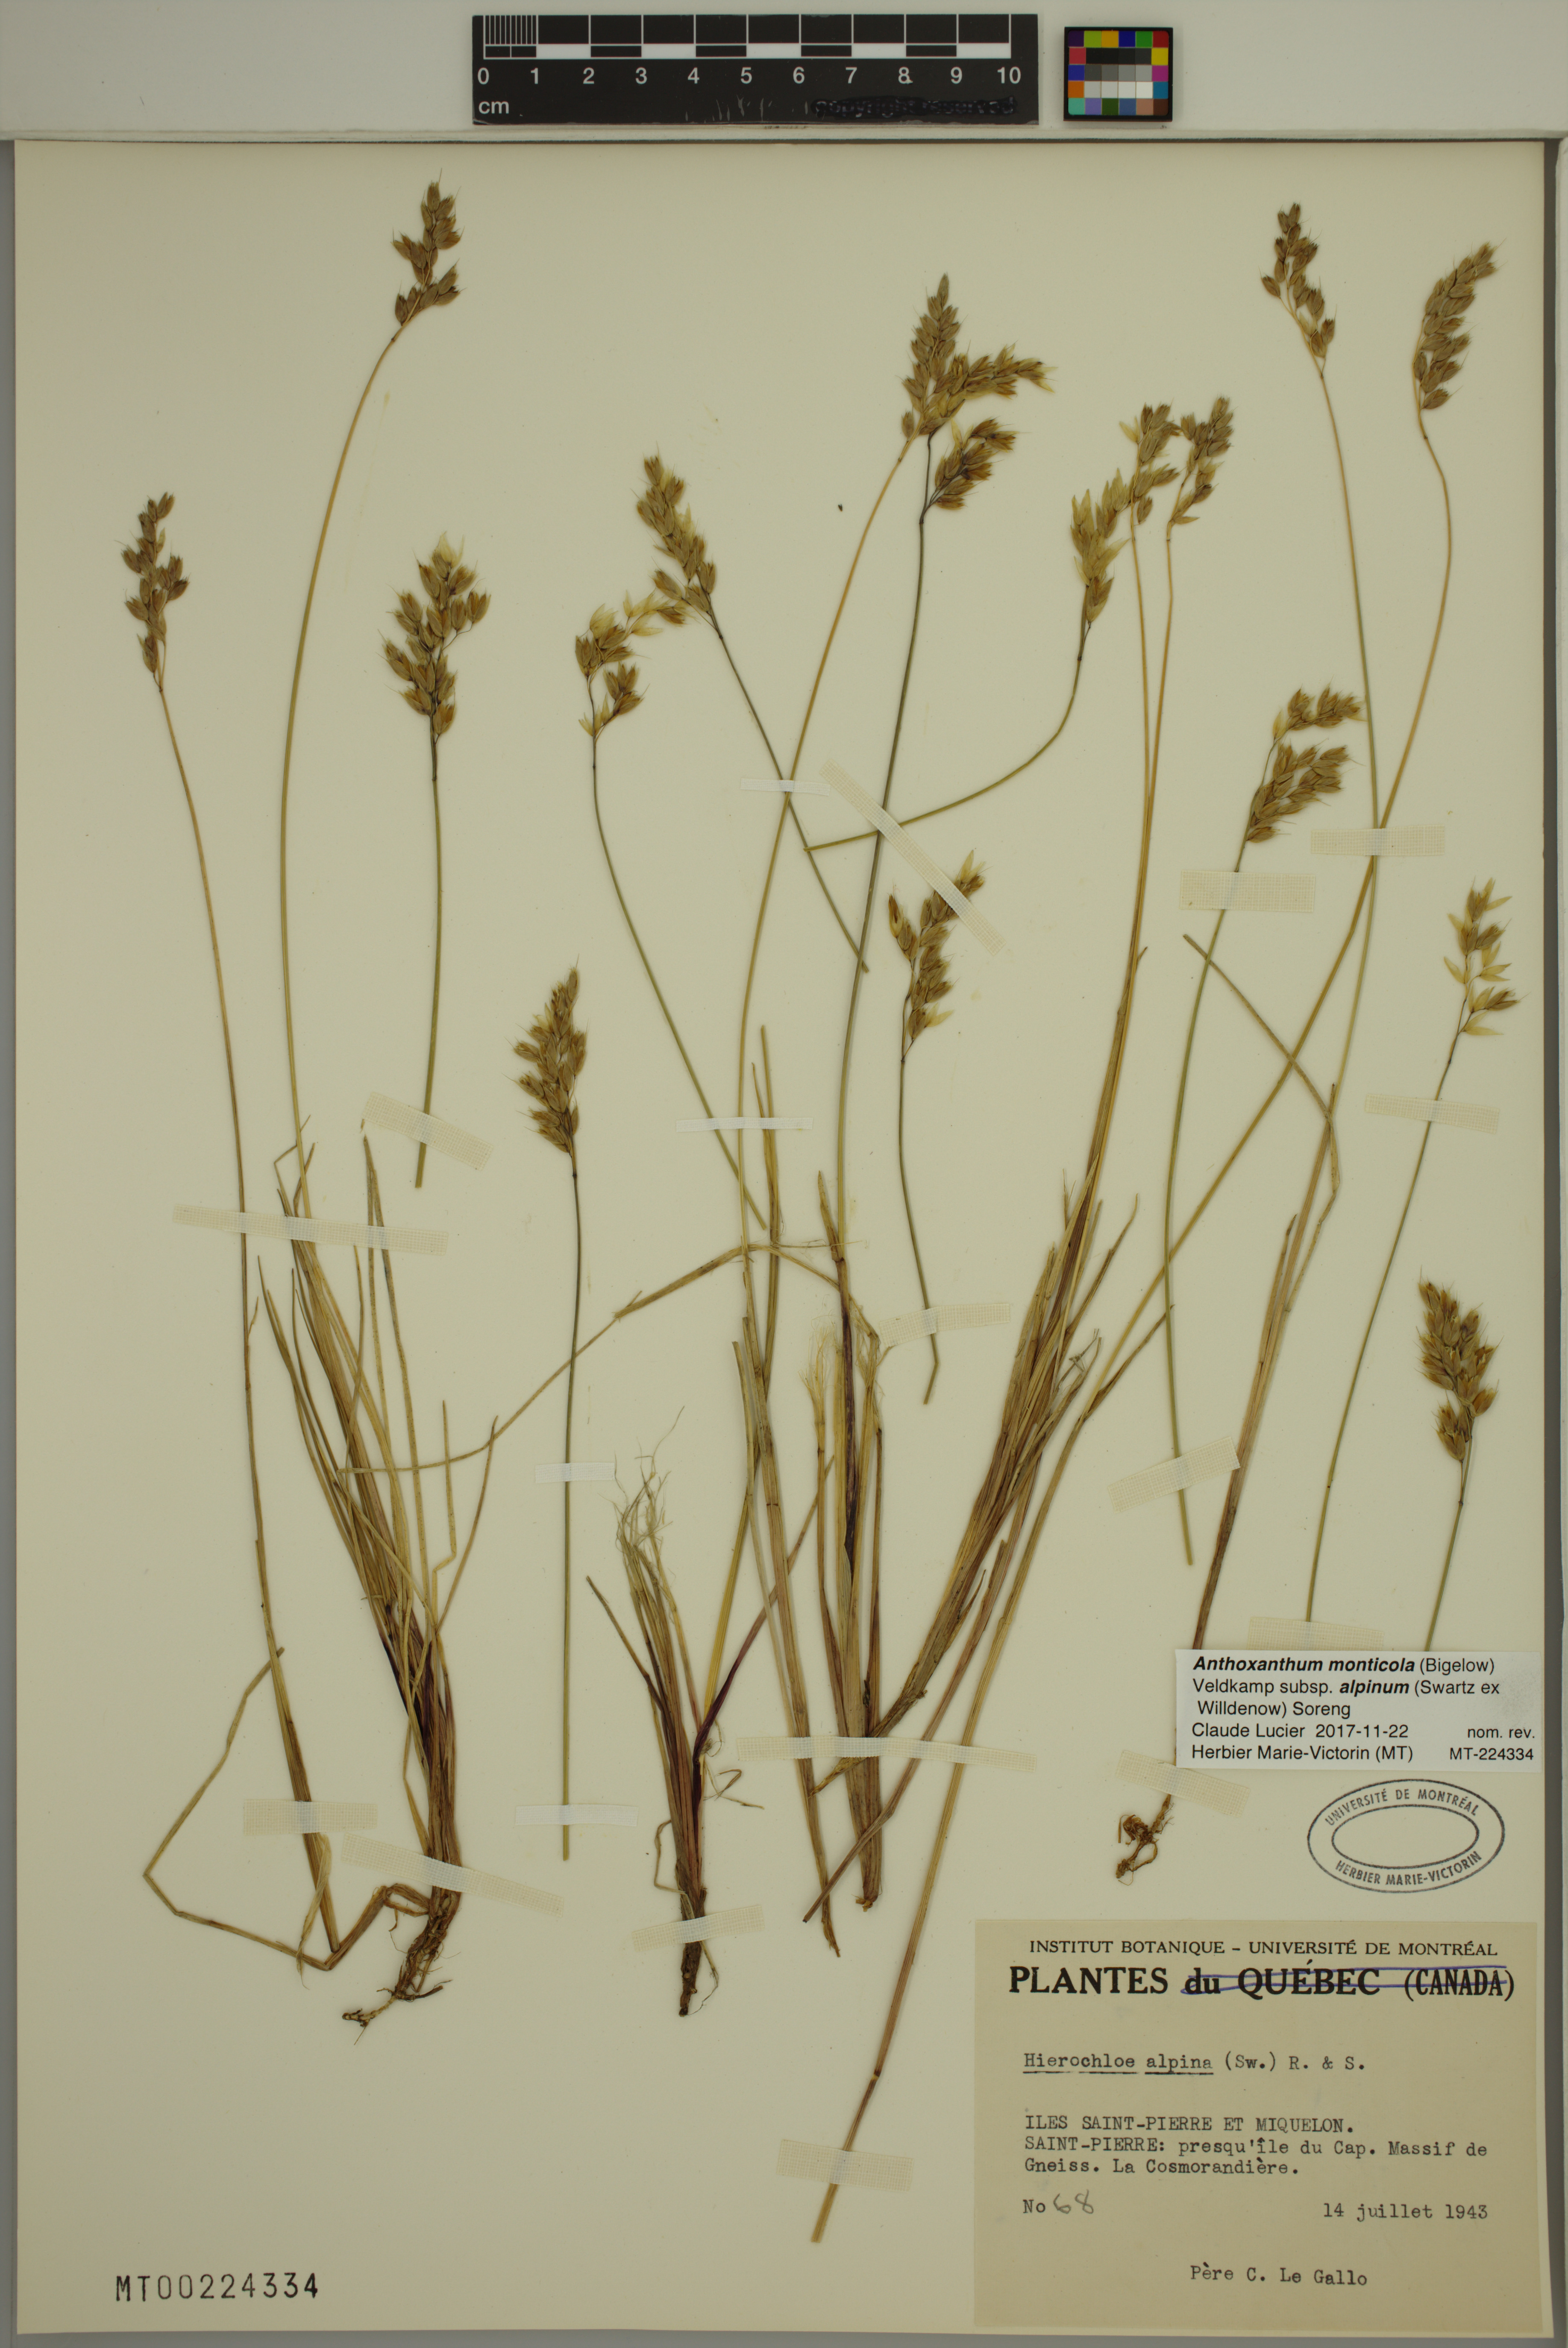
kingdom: Plantae
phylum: Tracheophyta
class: Liliopsida
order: Poales
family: Poaceae
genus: Anthoxanthum
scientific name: Anthoxanthum monticola
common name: Alpine sweetgrass
